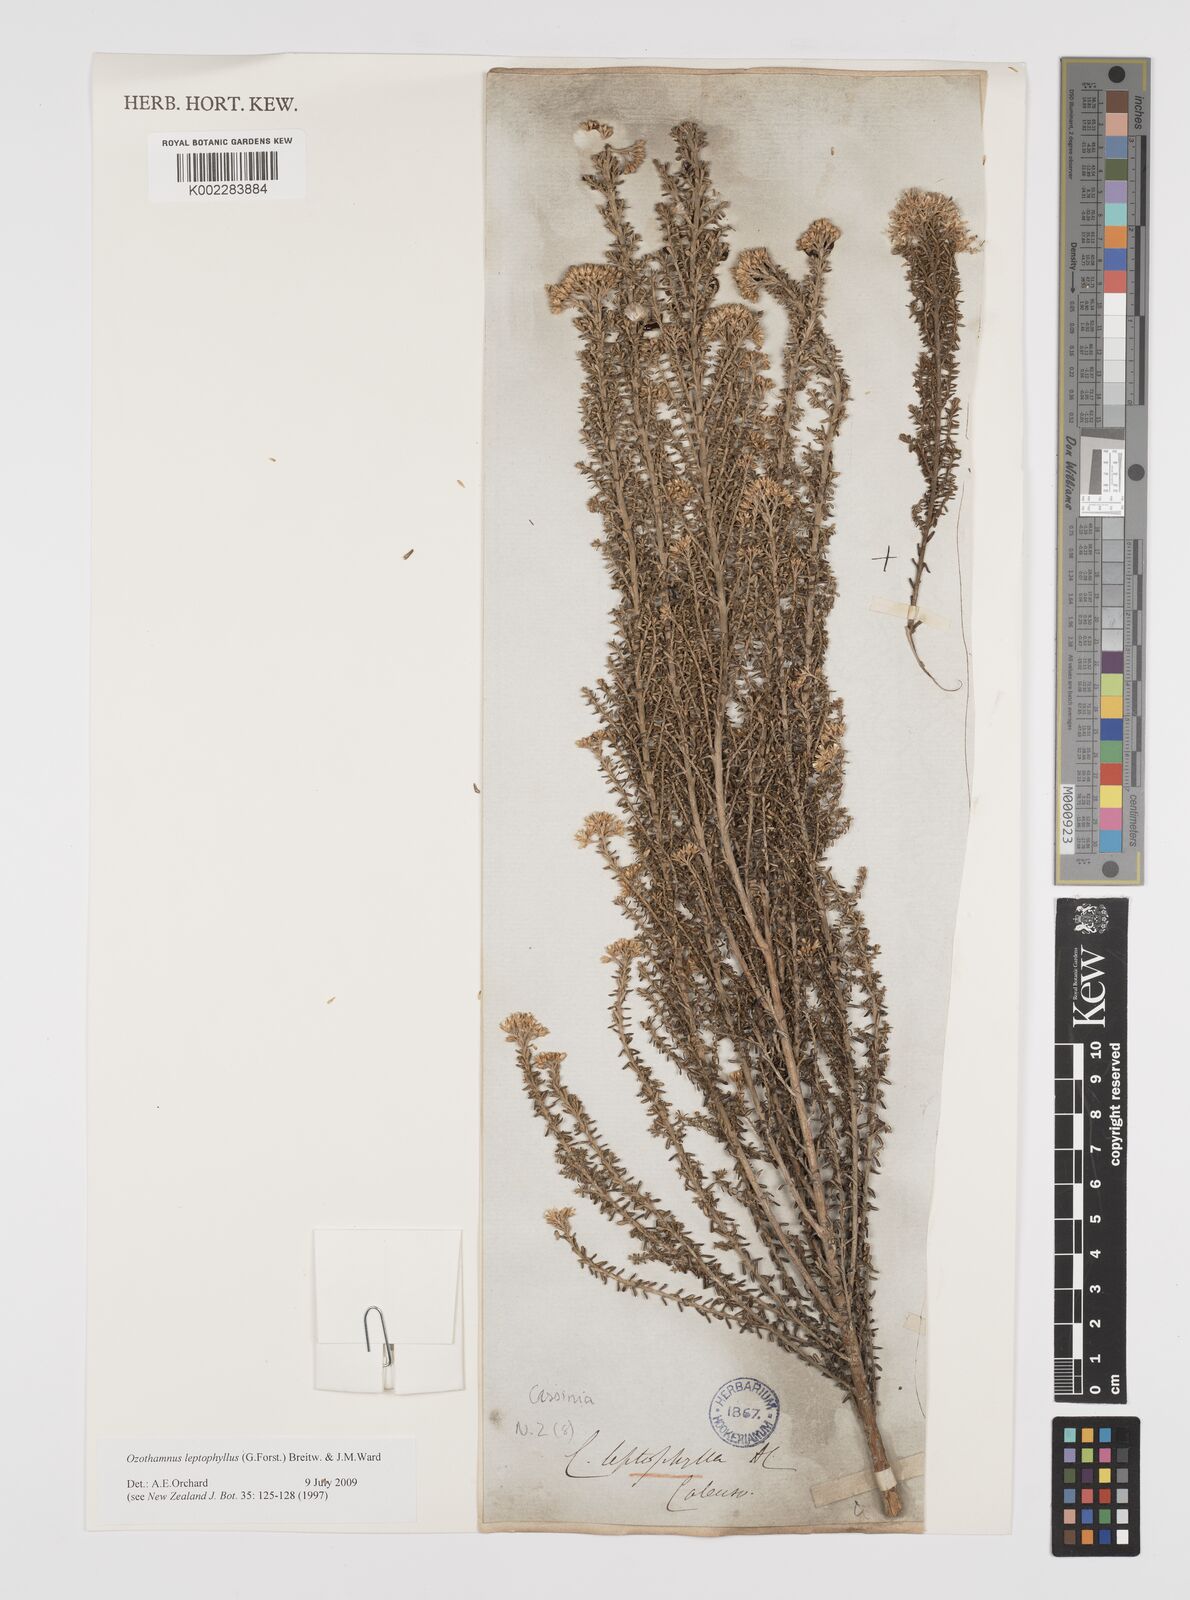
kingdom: Plantae
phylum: Tracheophyta
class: Magnoliopsida
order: Asterales
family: Asteraceae
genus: Ozothamnus
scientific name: Ozothamnus leptophyllus
